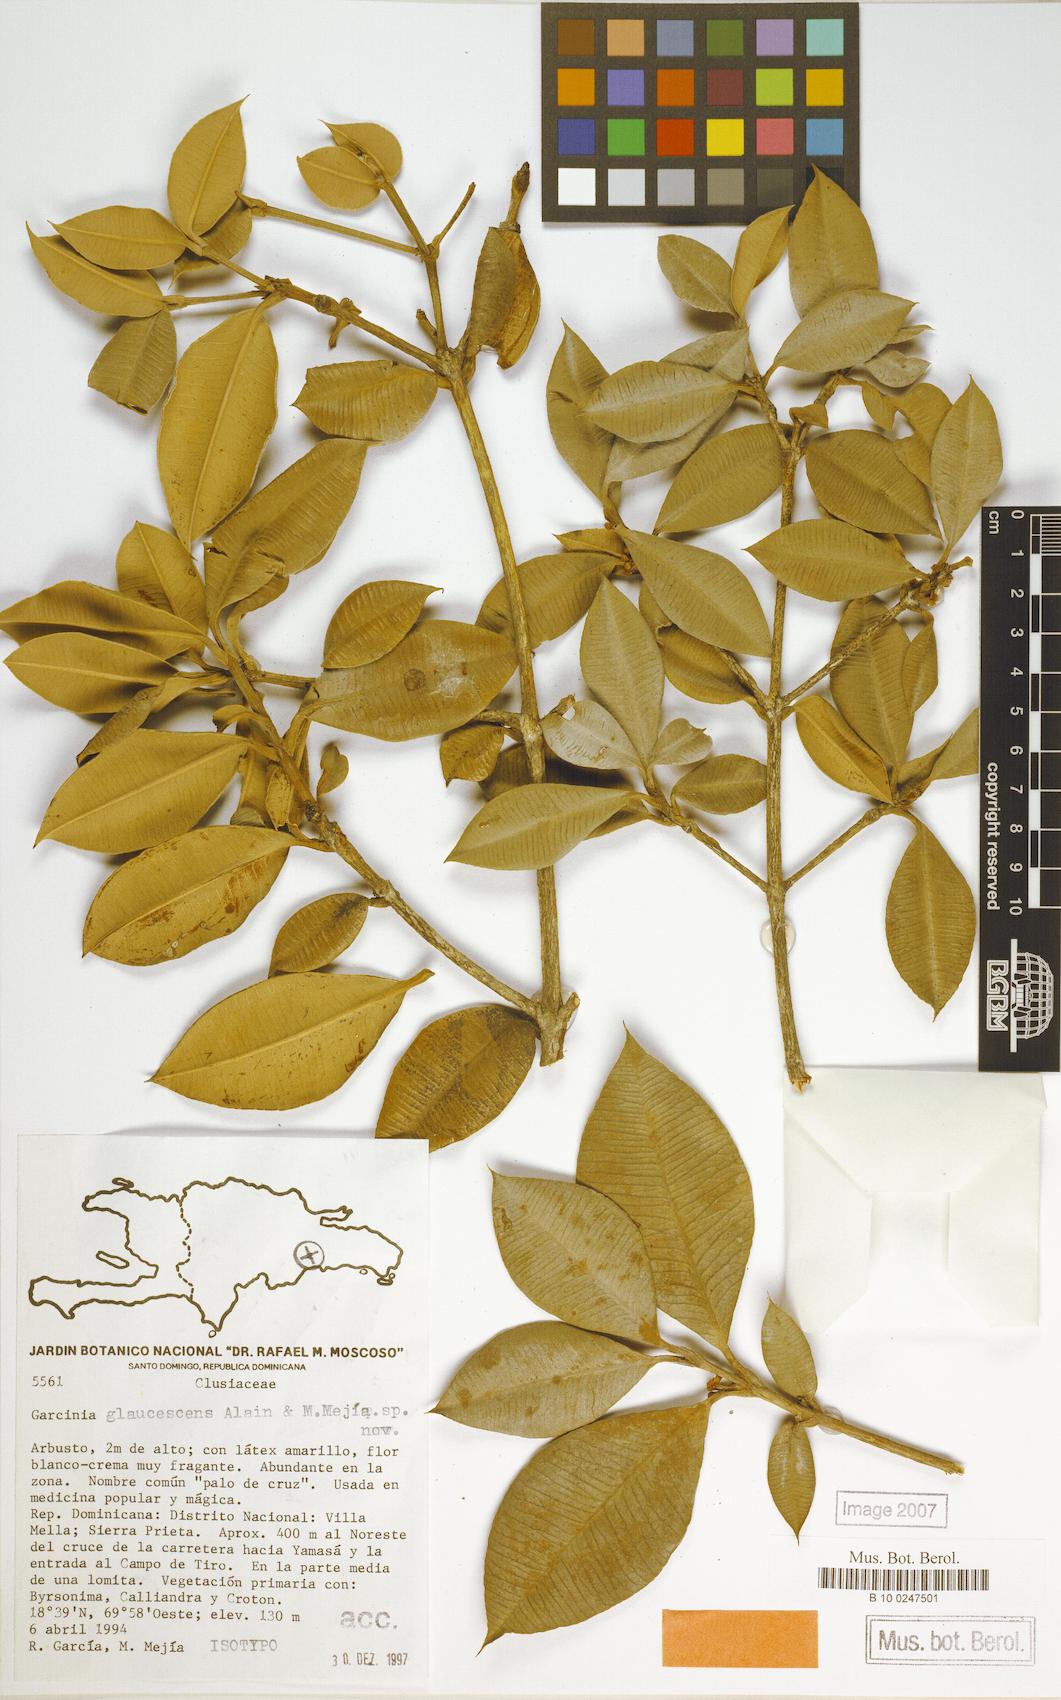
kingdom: Plantae
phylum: Tracheophyta
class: Magnoliopsida
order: Malpighiales
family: Clusiaceae
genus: Garcinia
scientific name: Garcinia glaucescens
